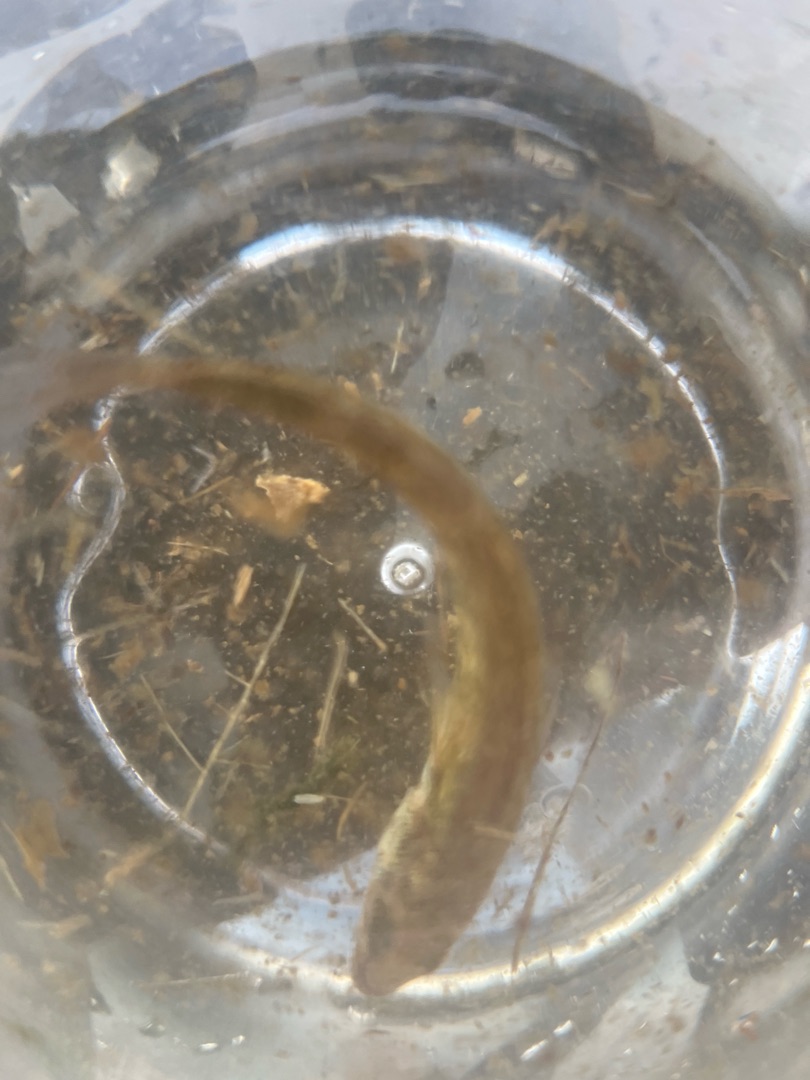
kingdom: Animalia
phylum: Chordata
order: Gasterosteiformes
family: Gasterosteidae
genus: Pungitius
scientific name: Pungitius pungitius
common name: Nipigget hundestejle
